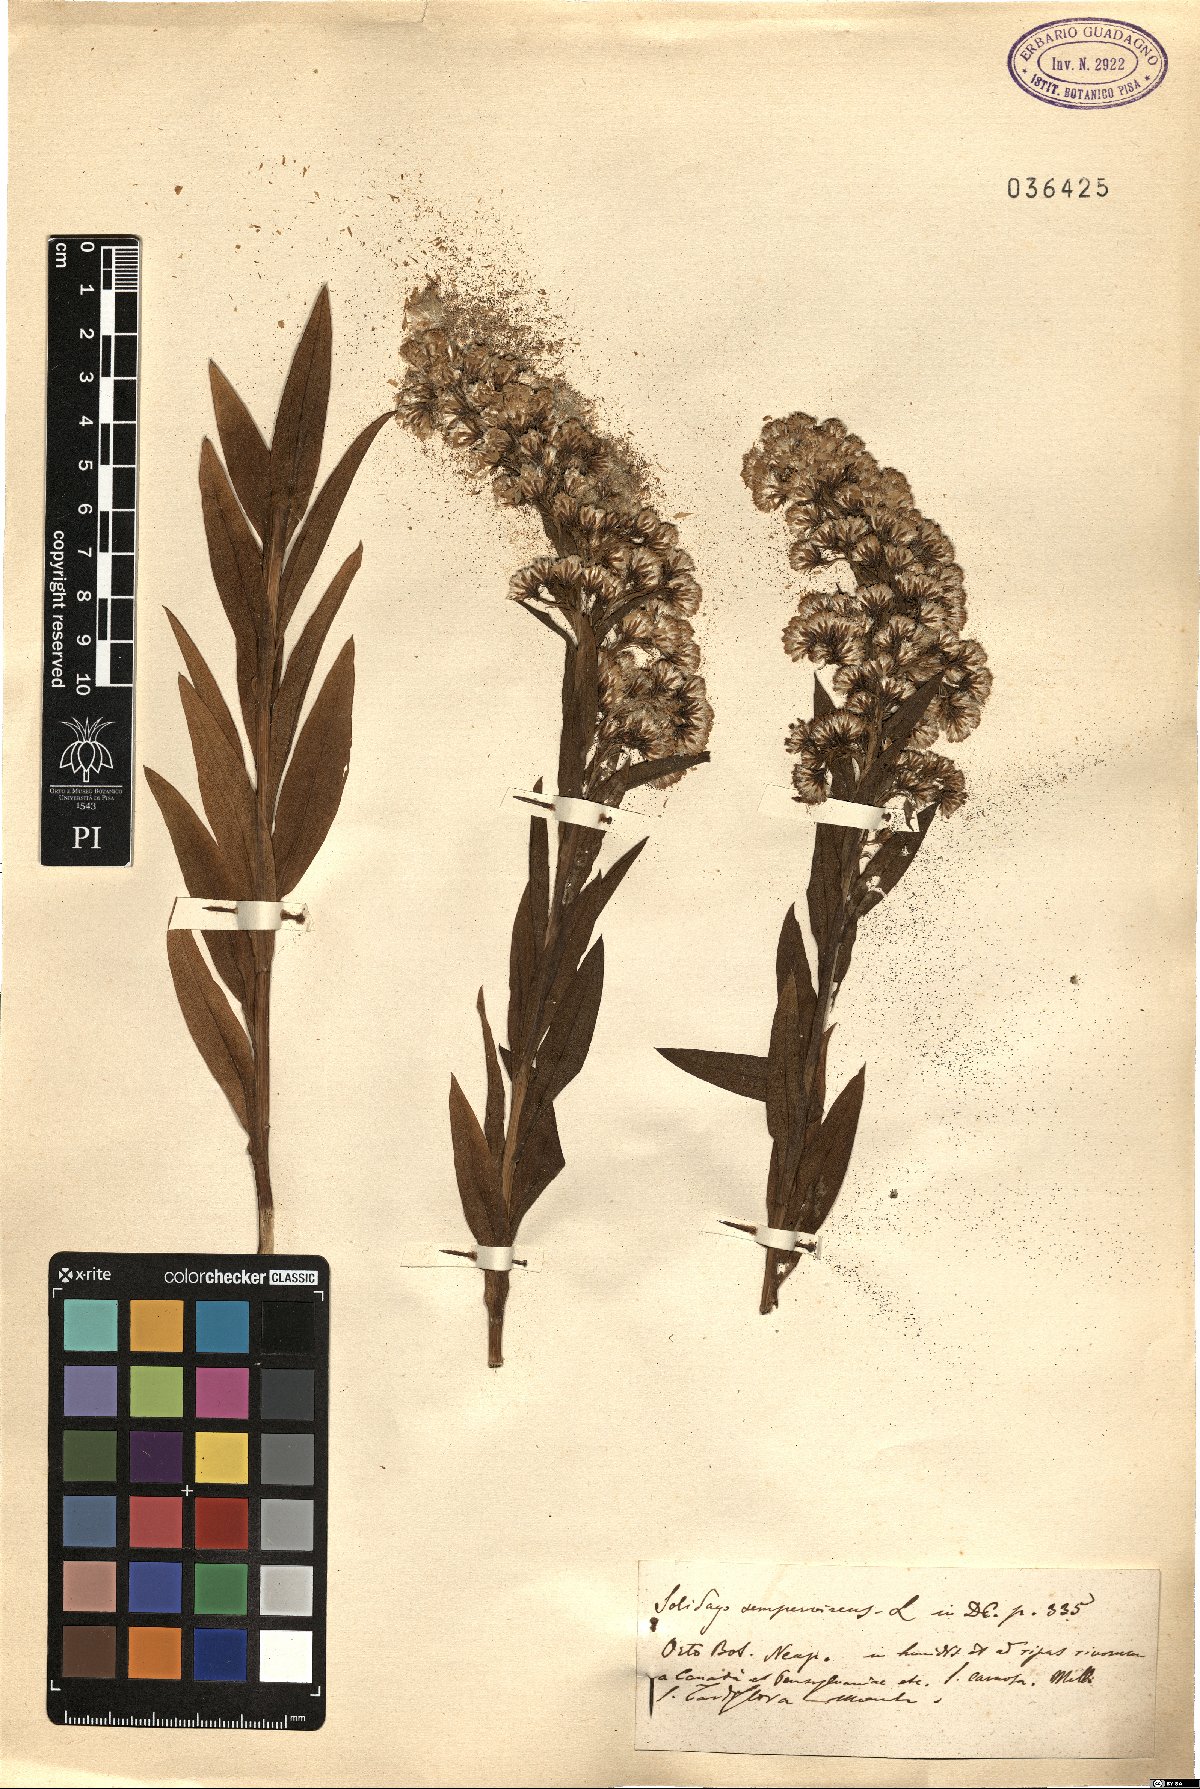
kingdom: Plantae
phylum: Tracheophyta
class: Magnoliopsida
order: Asterales
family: Asteraceae
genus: Solidago
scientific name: Solidago sempervirens
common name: Salt-marsh goldenrod
